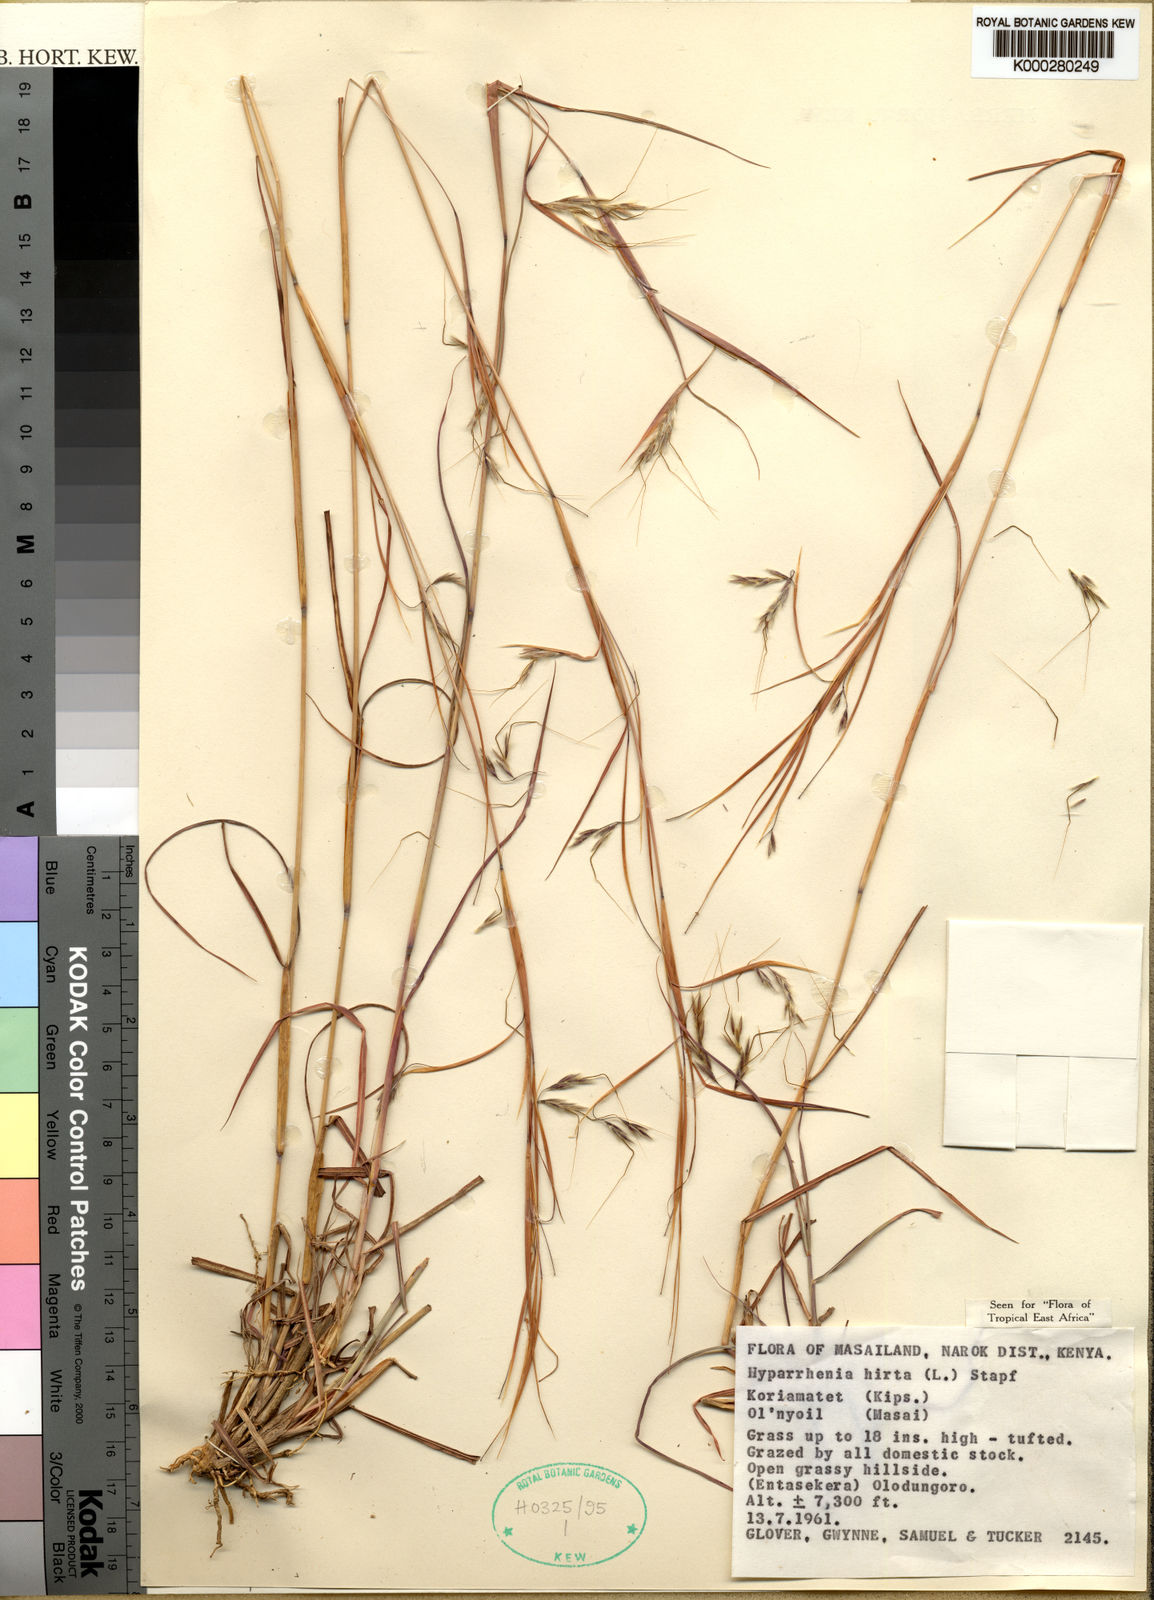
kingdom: Plantae
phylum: Tracheophyta
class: Liliopsida
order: Poales
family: Poaceae
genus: Hyparrhenia
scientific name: Hyparrhenia anamesa
